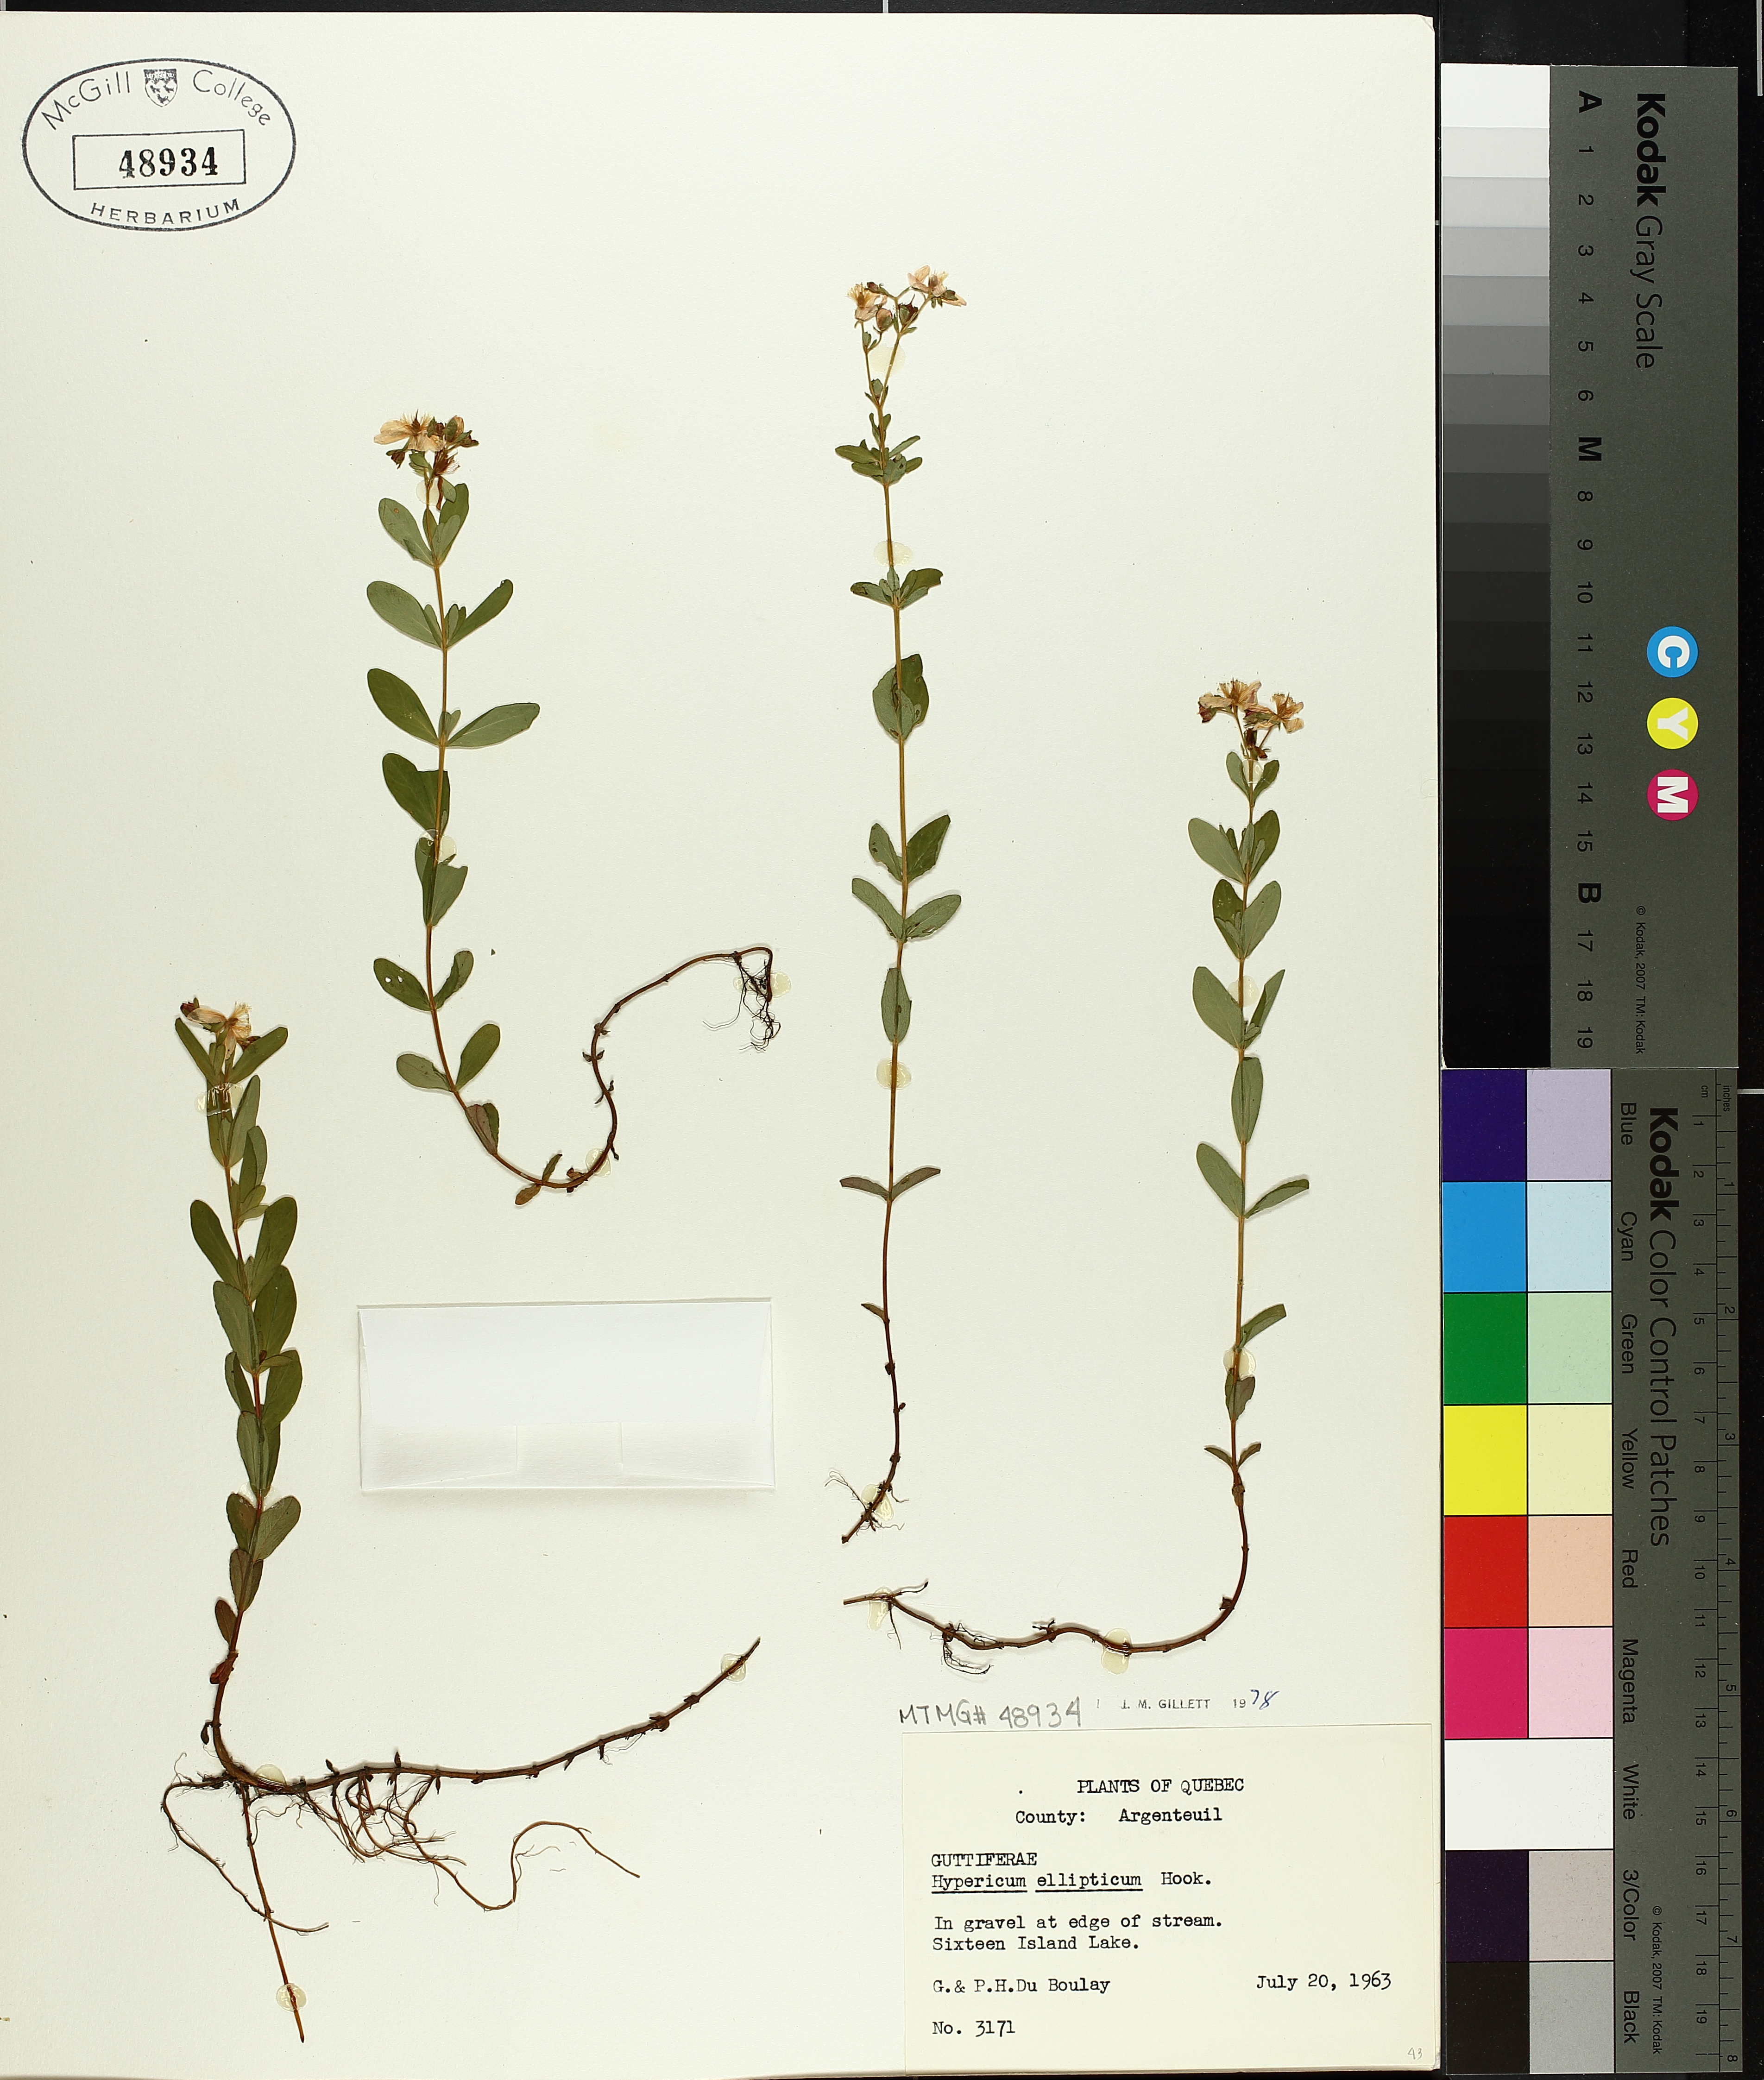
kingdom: Plantae
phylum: Tracheophyta
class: Magnoliopsida
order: Malpighiales
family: Hypericaceae
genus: Hypericum
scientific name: Hypericum ellipticum
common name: Elliptic st. john's-wort
